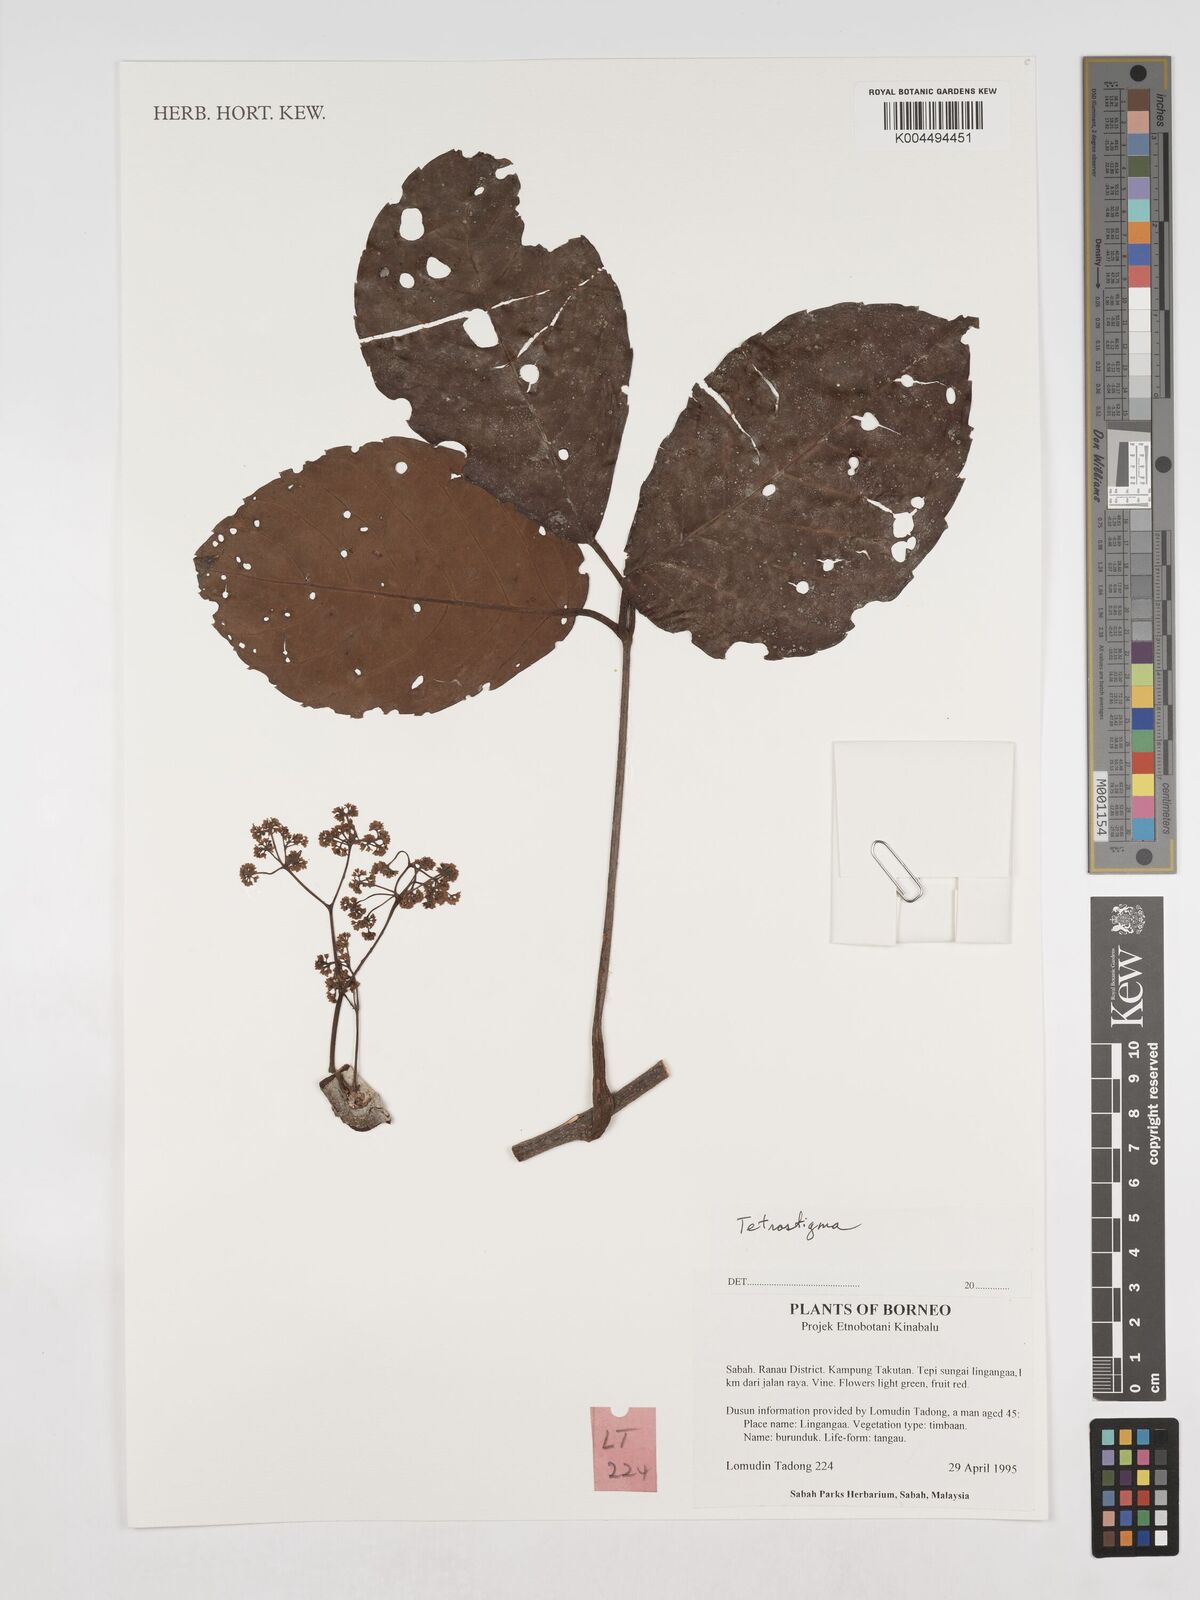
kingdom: Plantae
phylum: Tracheophyta
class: Magnoliopsida
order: Vitales
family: Vitaceae
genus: Tetrastigma
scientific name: Tetrastigma
